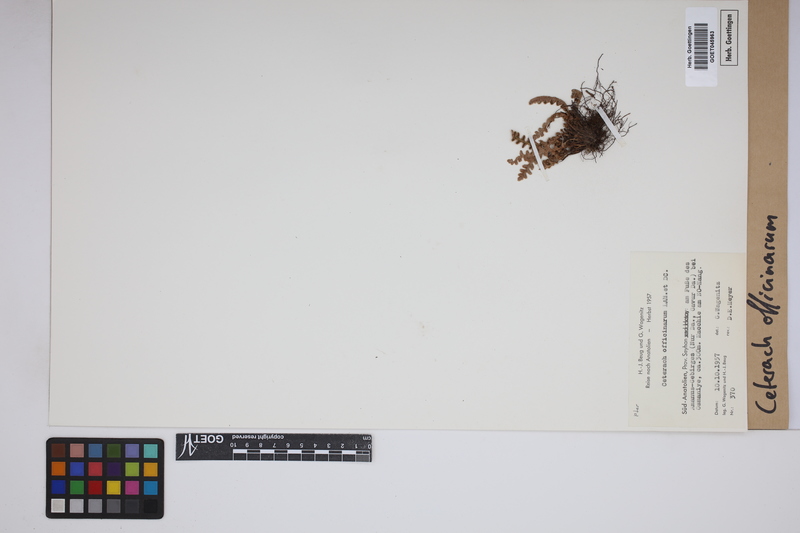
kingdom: Plantae
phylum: Tracheophyta
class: Polypodiopsida
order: Polypodiales
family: Aspleniaceae
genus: Asplenium
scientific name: Asplenium ceterach
